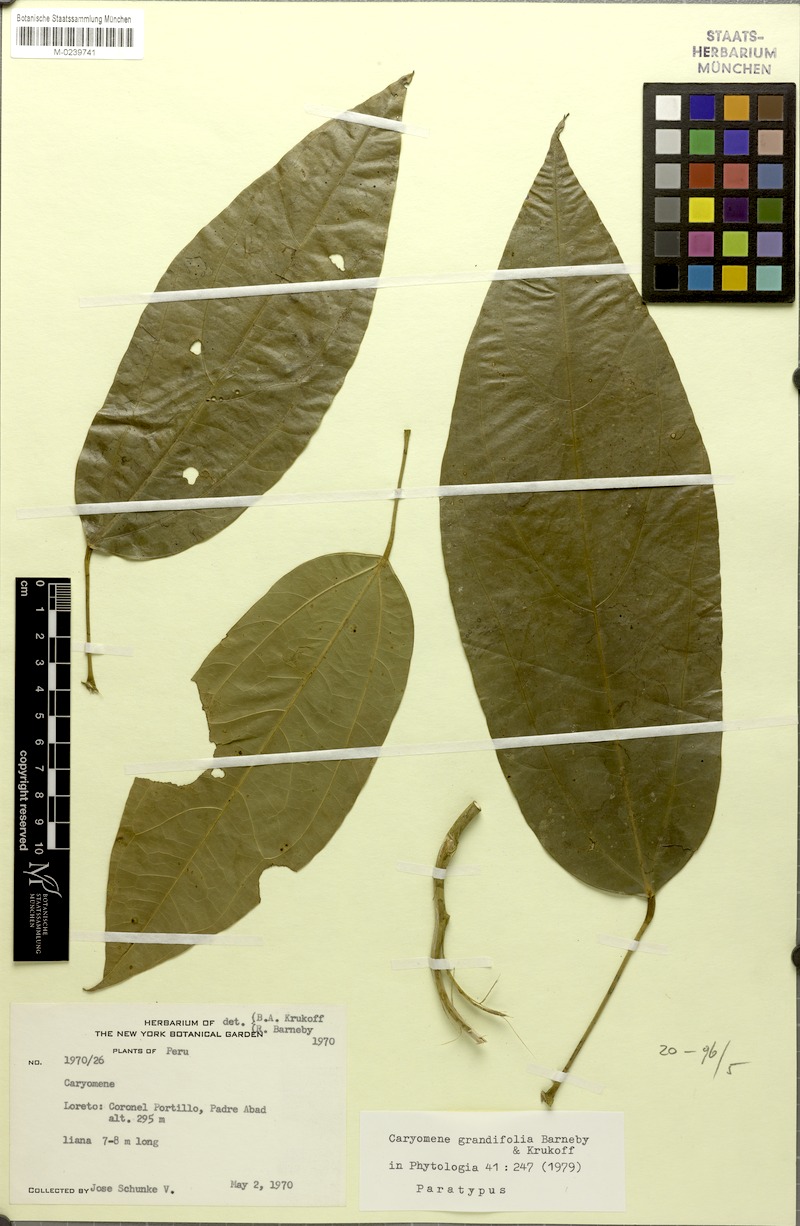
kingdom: Plantae
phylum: Tracheophyta
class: Magnoliopsida
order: Ranunculales
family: Menispermaceae
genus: Caryomene
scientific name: Caryomene grandifolia
